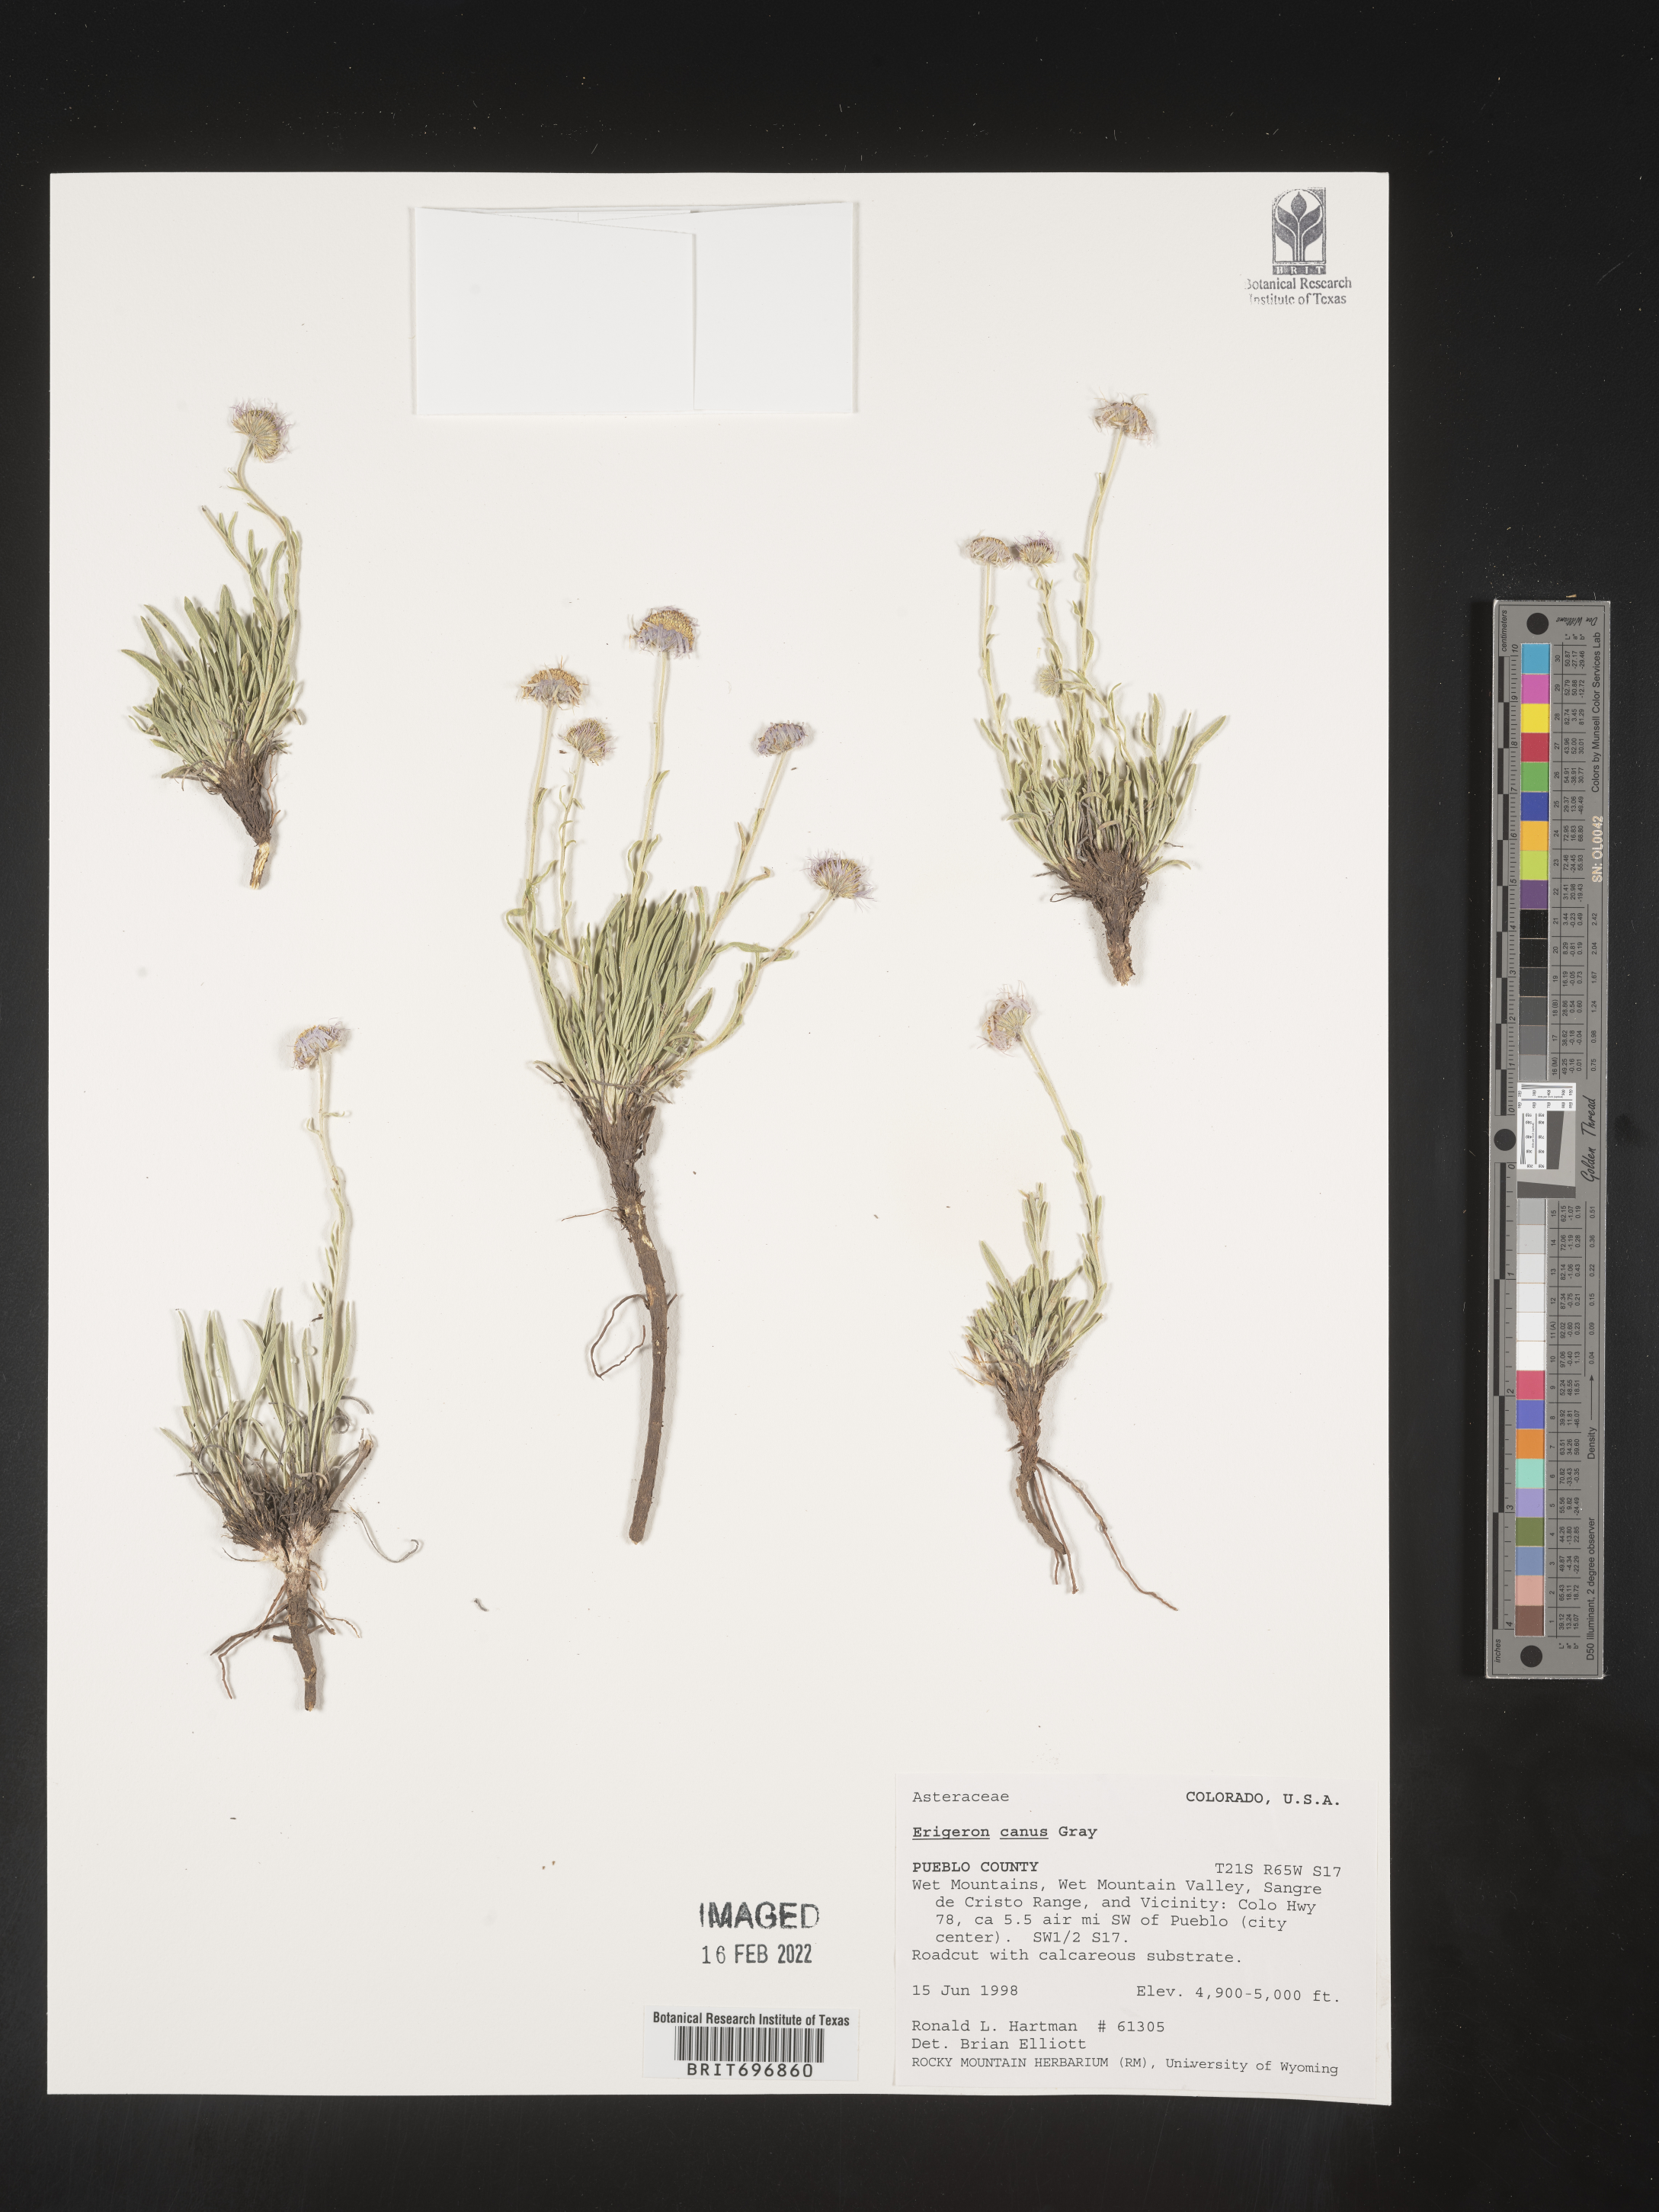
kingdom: Plantae
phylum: Tracheophyta
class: Magnoliopsida
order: Asterales
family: Asteraceae
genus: Erigeron
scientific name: Erigeron canus
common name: Hoary fleabane
